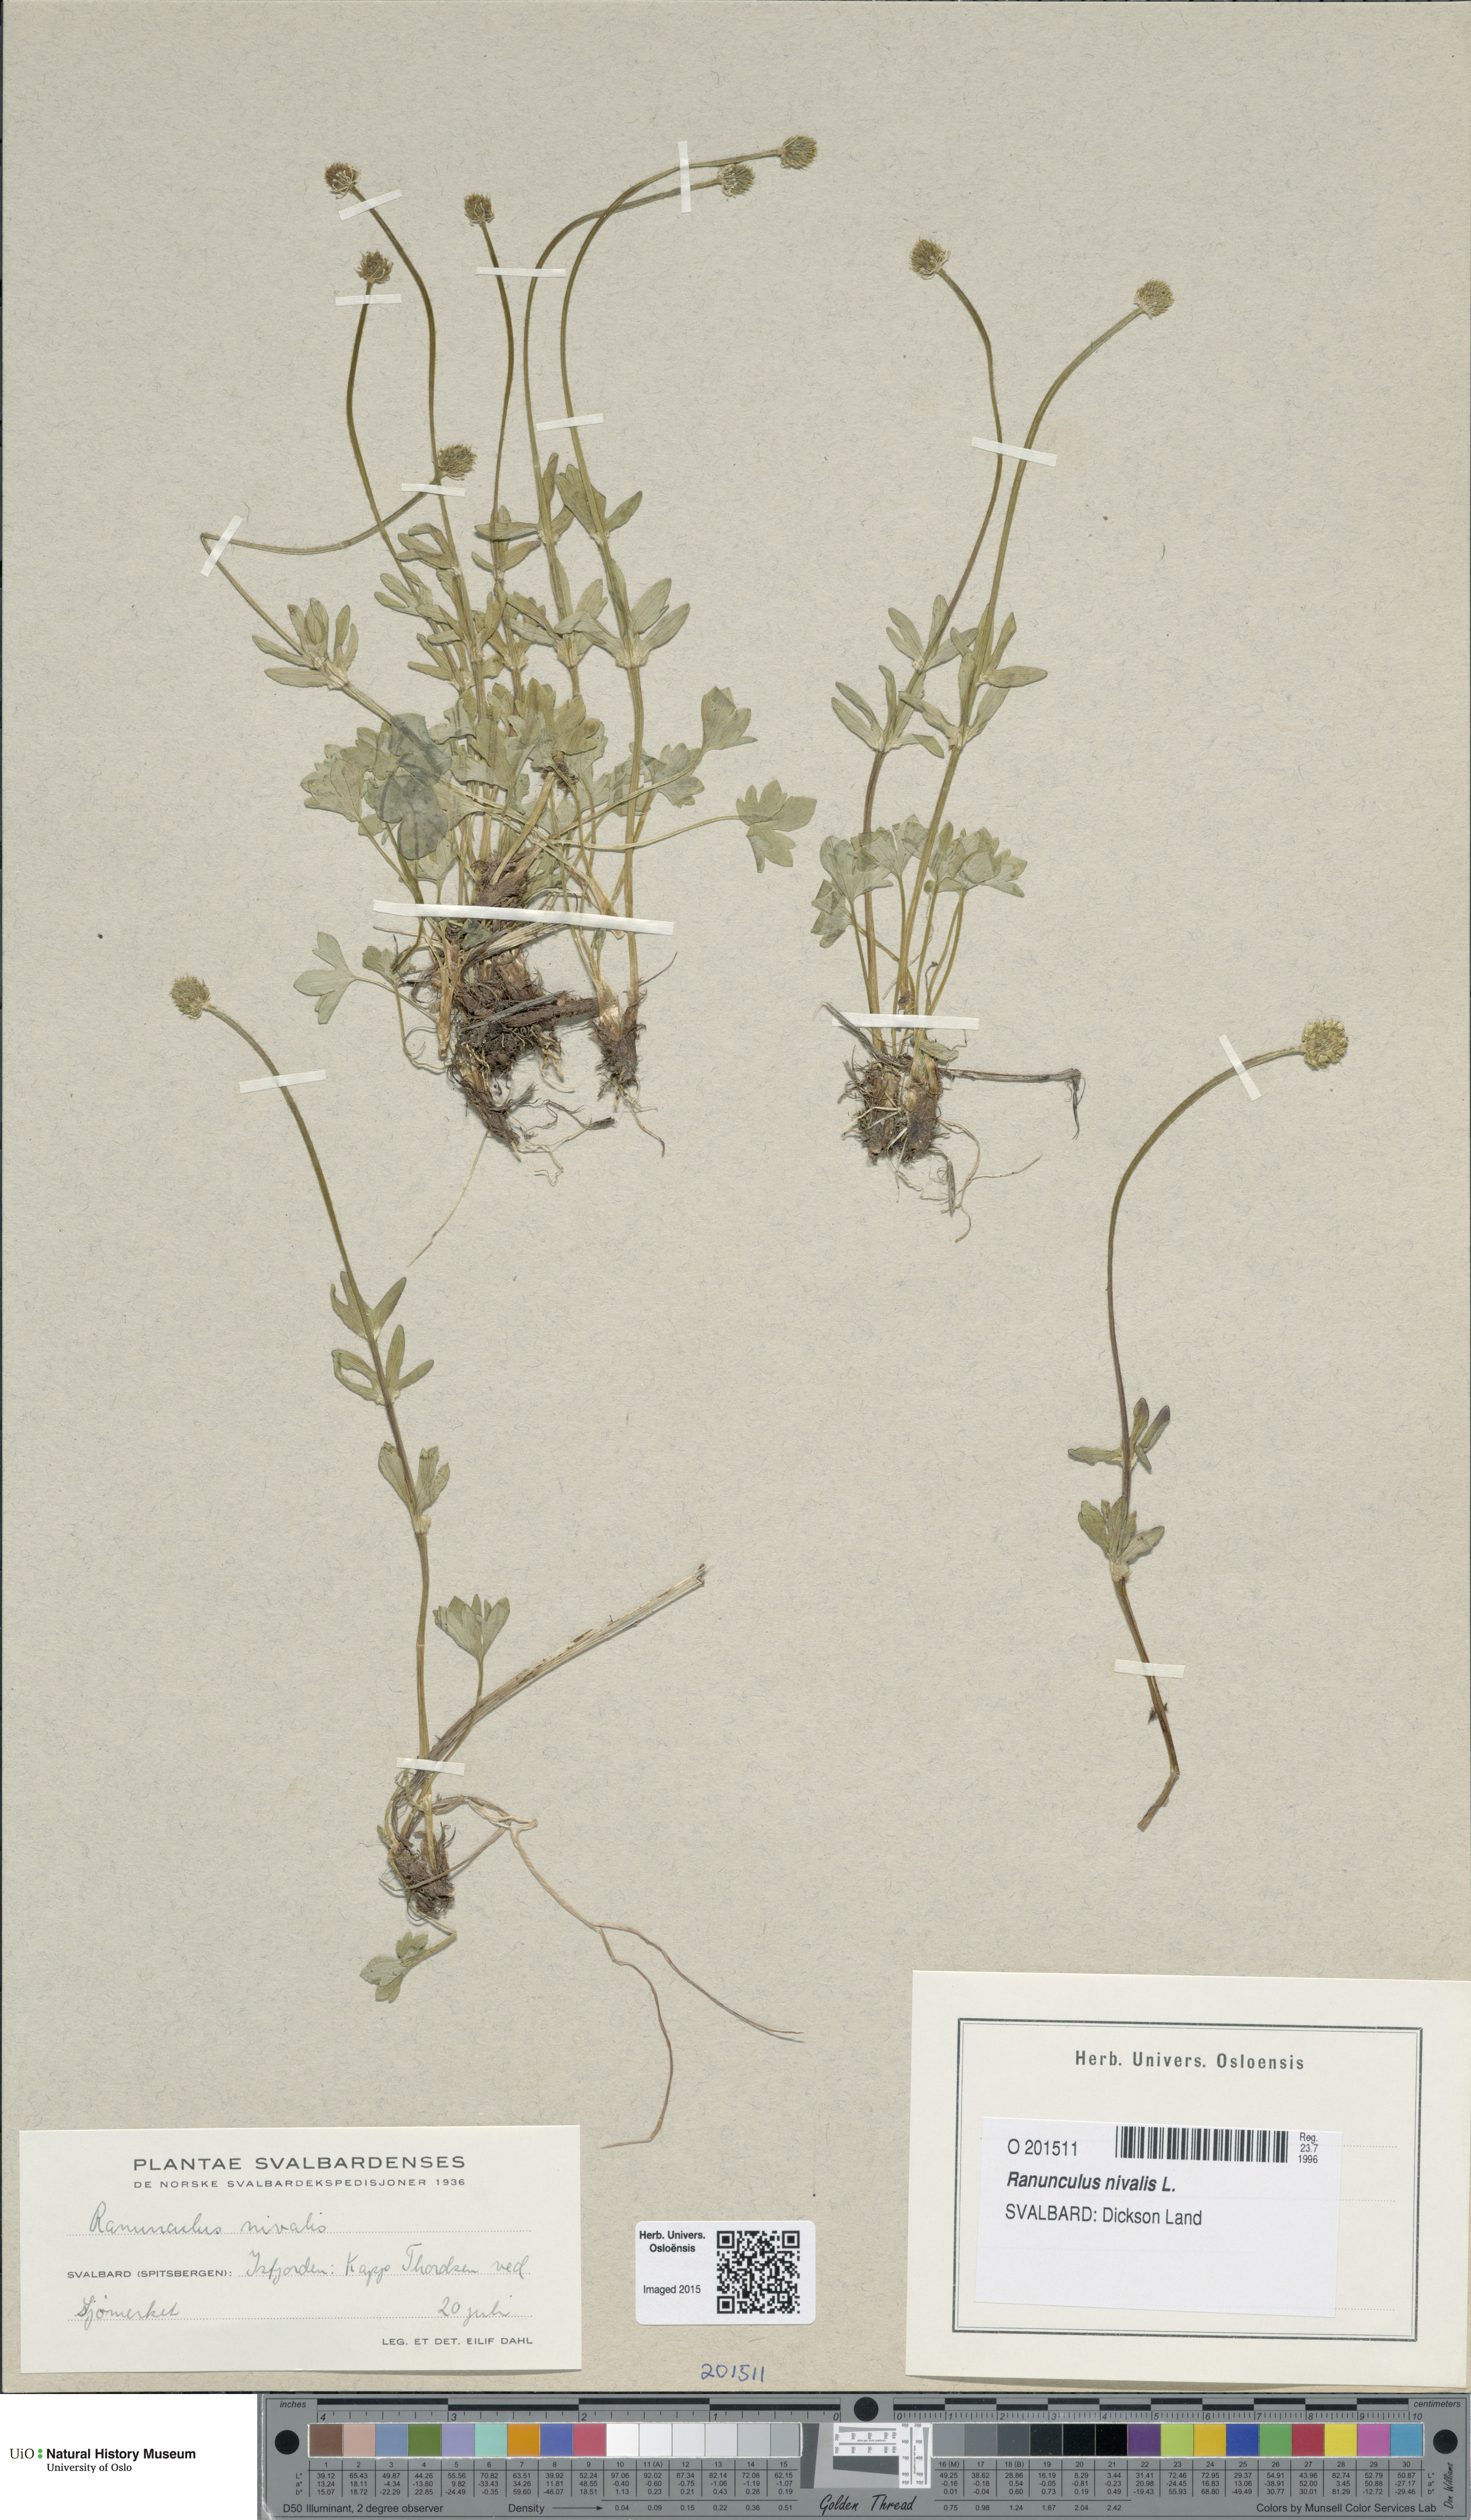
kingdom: Plantae
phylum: Tracheophyta
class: Magnoliopsida
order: Ranunculales
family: Ranunculaceae
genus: Ranunculus
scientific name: Ranunculus nivalis
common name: Snow buttercup
